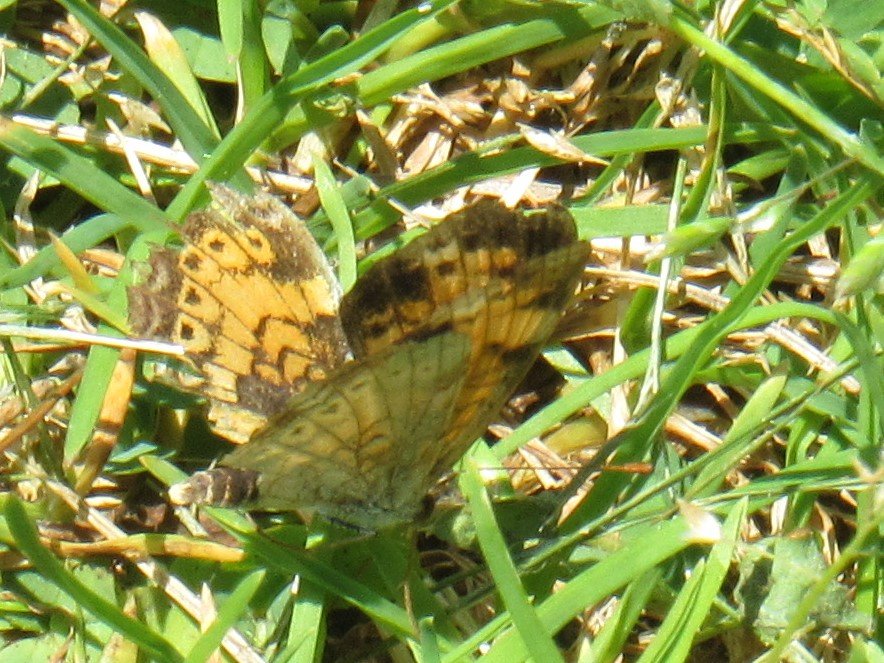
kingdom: Animalia
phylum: Arthropoda
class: Insecta
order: Lepidoptera
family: Nymphalidae
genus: Phyciodes
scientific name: Phyciodes tharos
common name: Pearl Crescent
